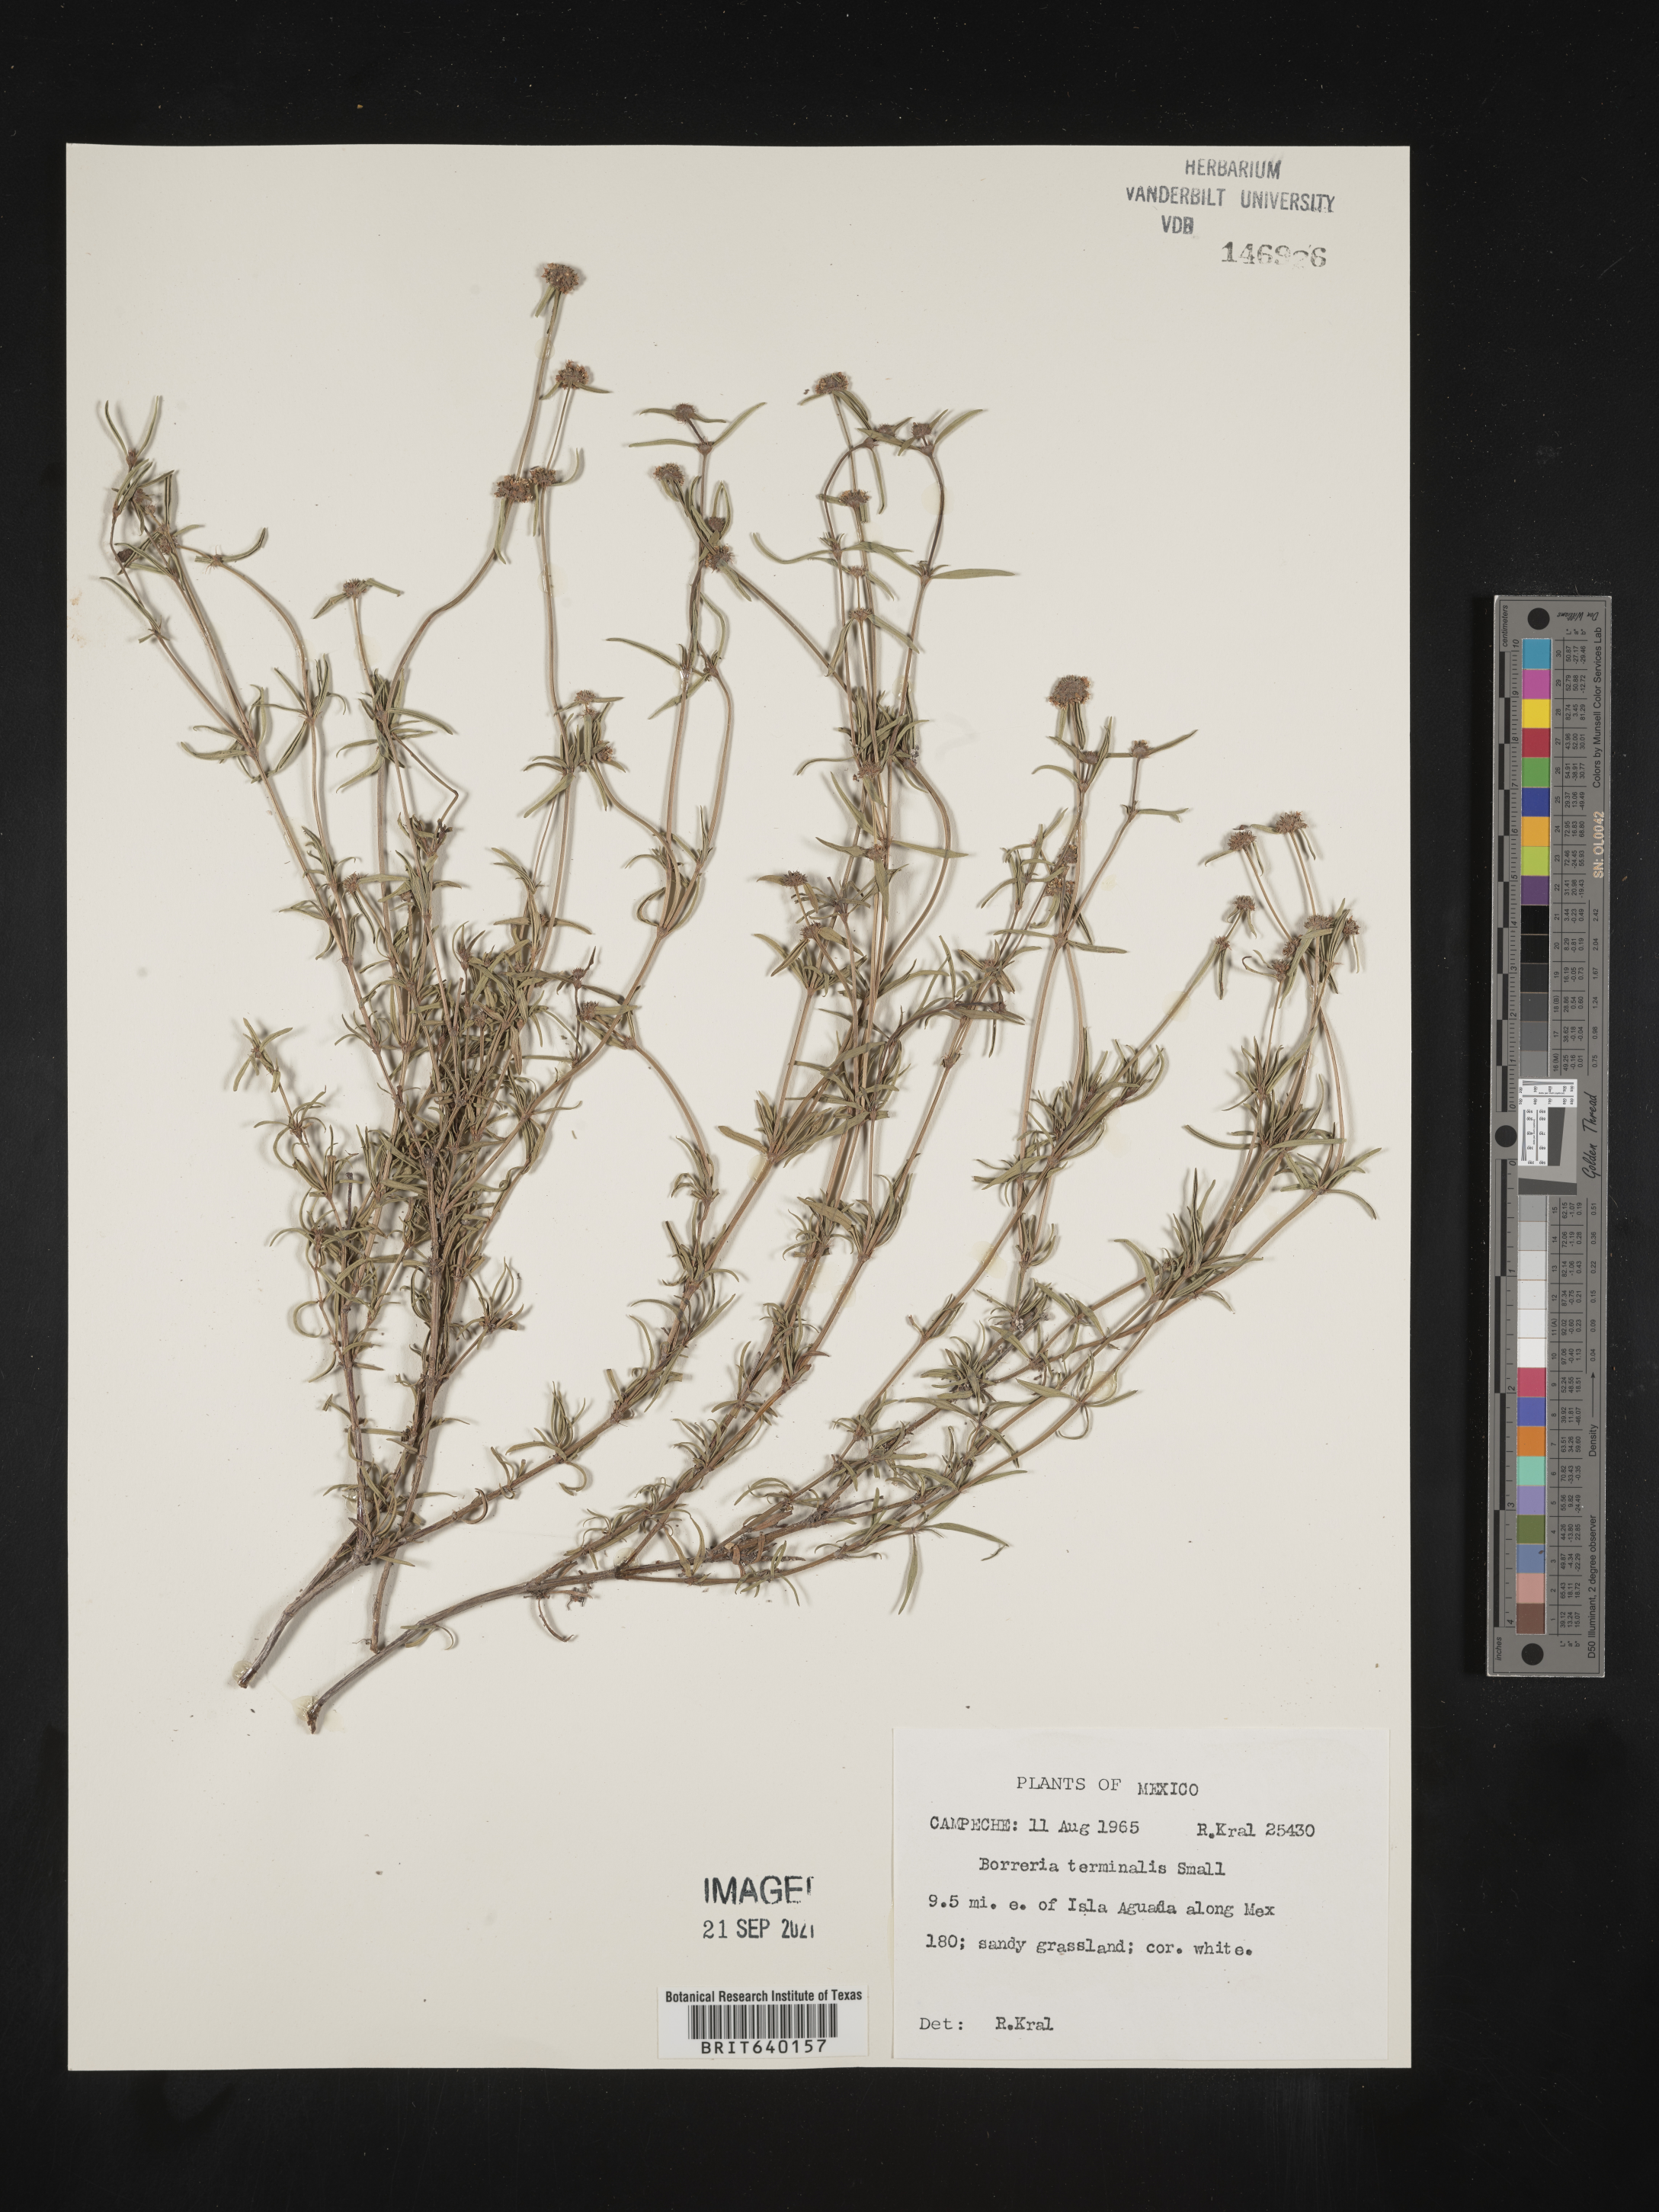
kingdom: Plantae
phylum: Tracheophyta
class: Magnoliopsida
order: Gentianales
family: Rubiaceae
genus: Spermacoce
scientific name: Spermacoce
